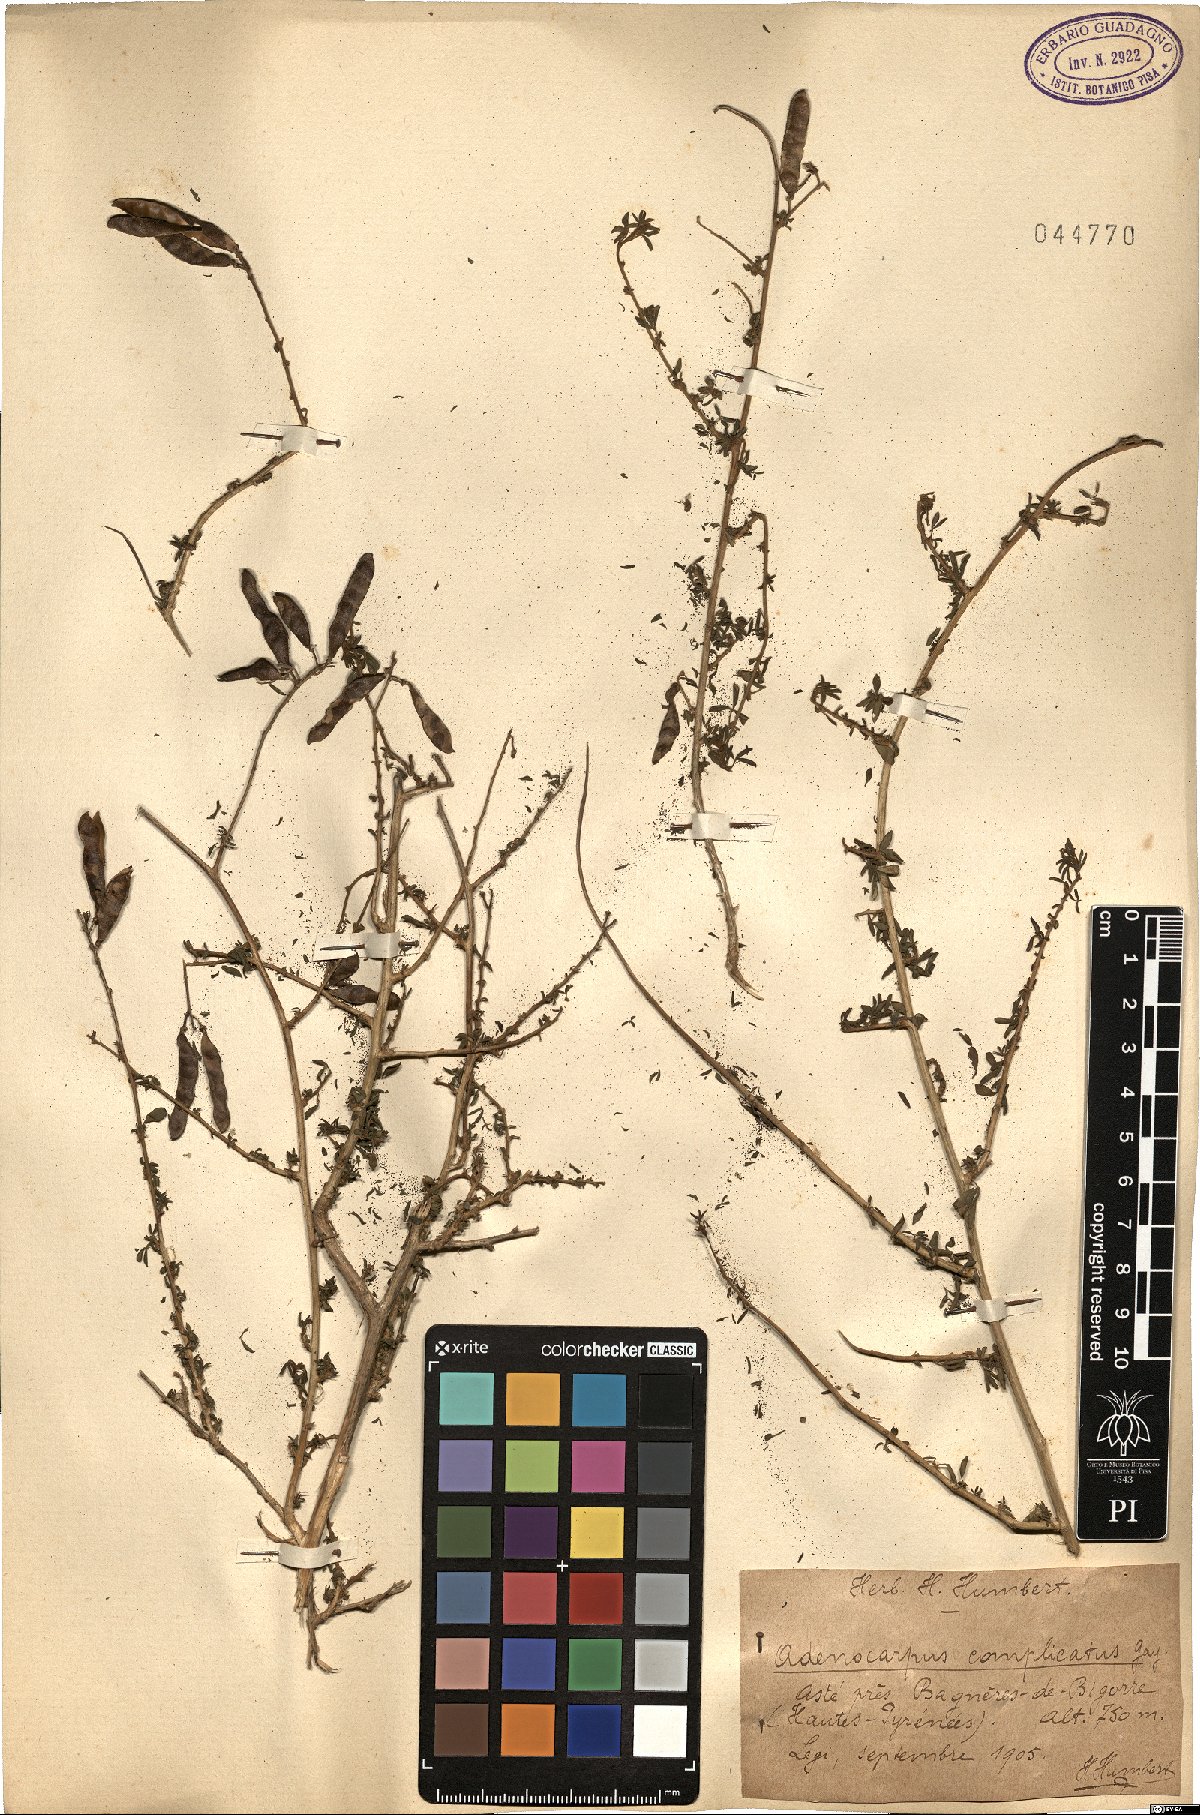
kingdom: Plantae
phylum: Tracheophyta
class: Magnoliopsida
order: Fabales
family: Fabaceae
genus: Adenocarpus
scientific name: Adenocarpus complicatus
